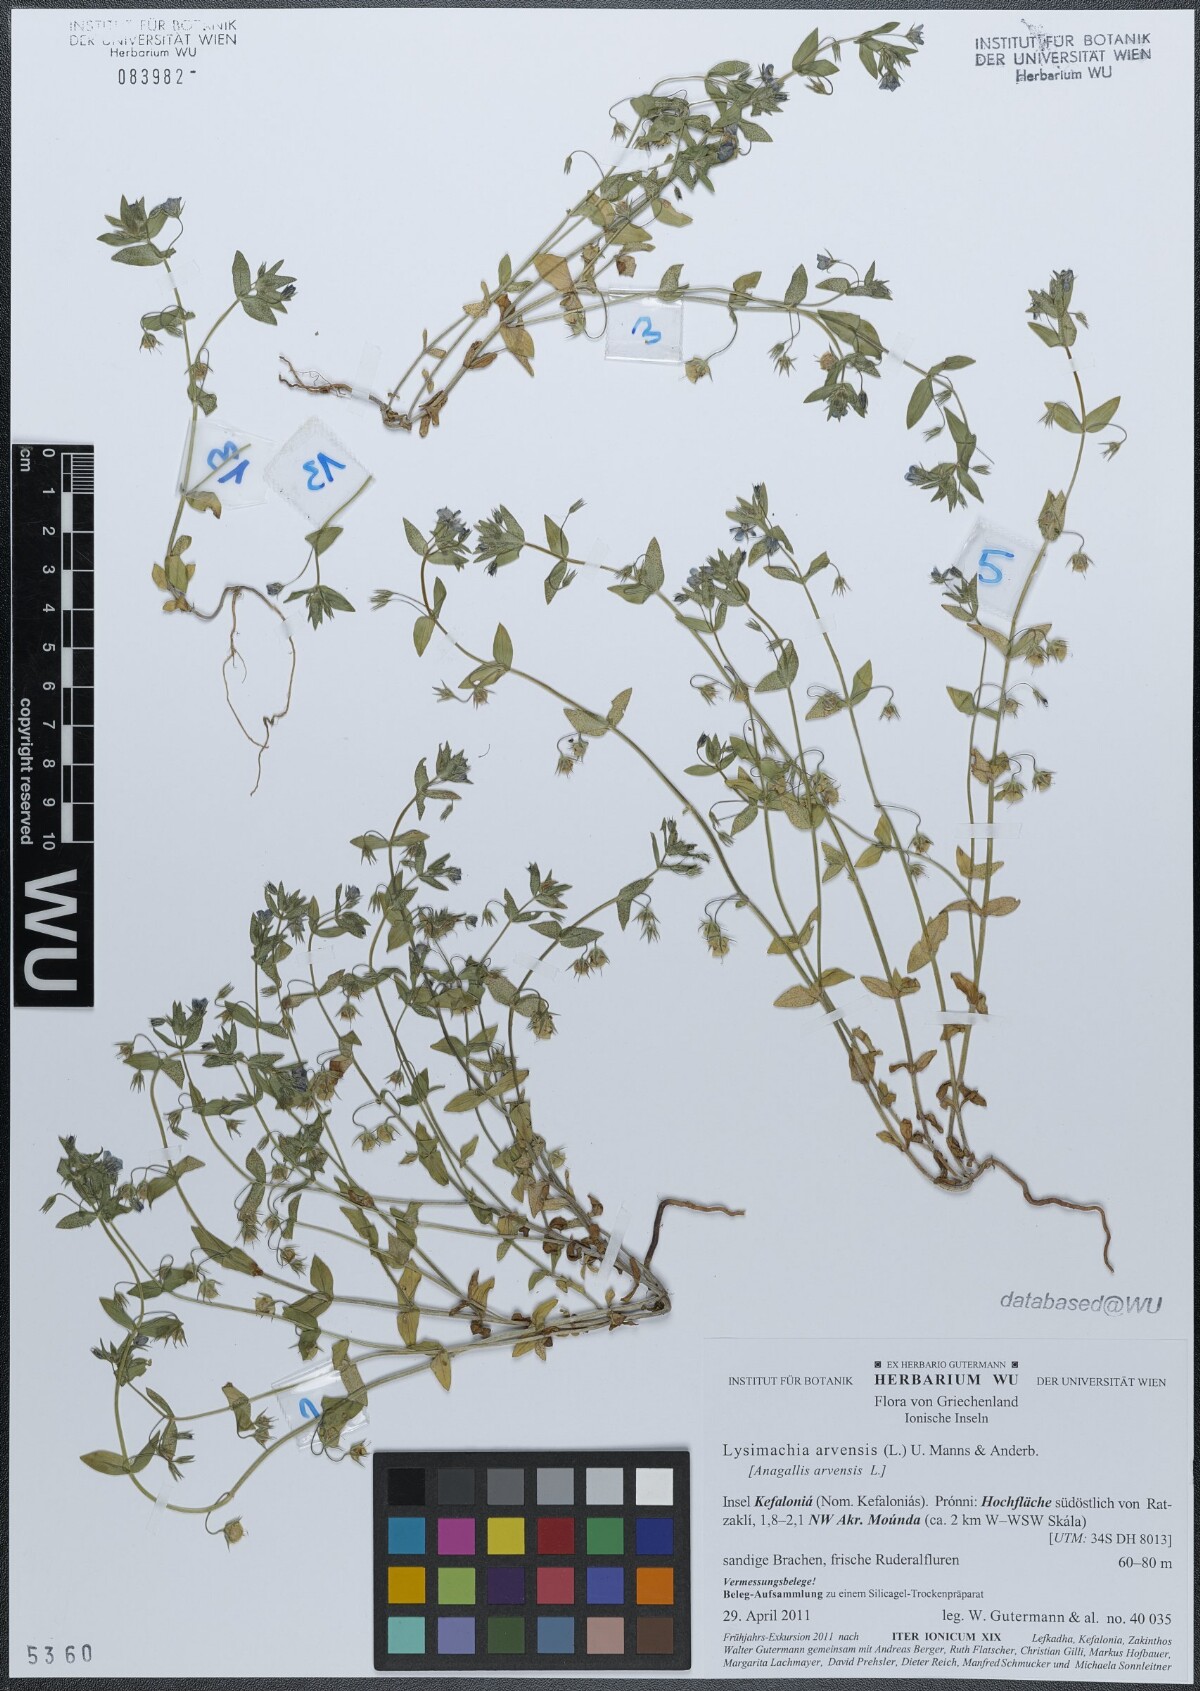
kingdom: Plantae
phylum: Tracheophyta
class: Magnoliopsida
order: Ericales
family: Primulaceae
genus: Lysimachia
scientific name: Lysimachia arvensis
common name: Scarlet pimpernel
